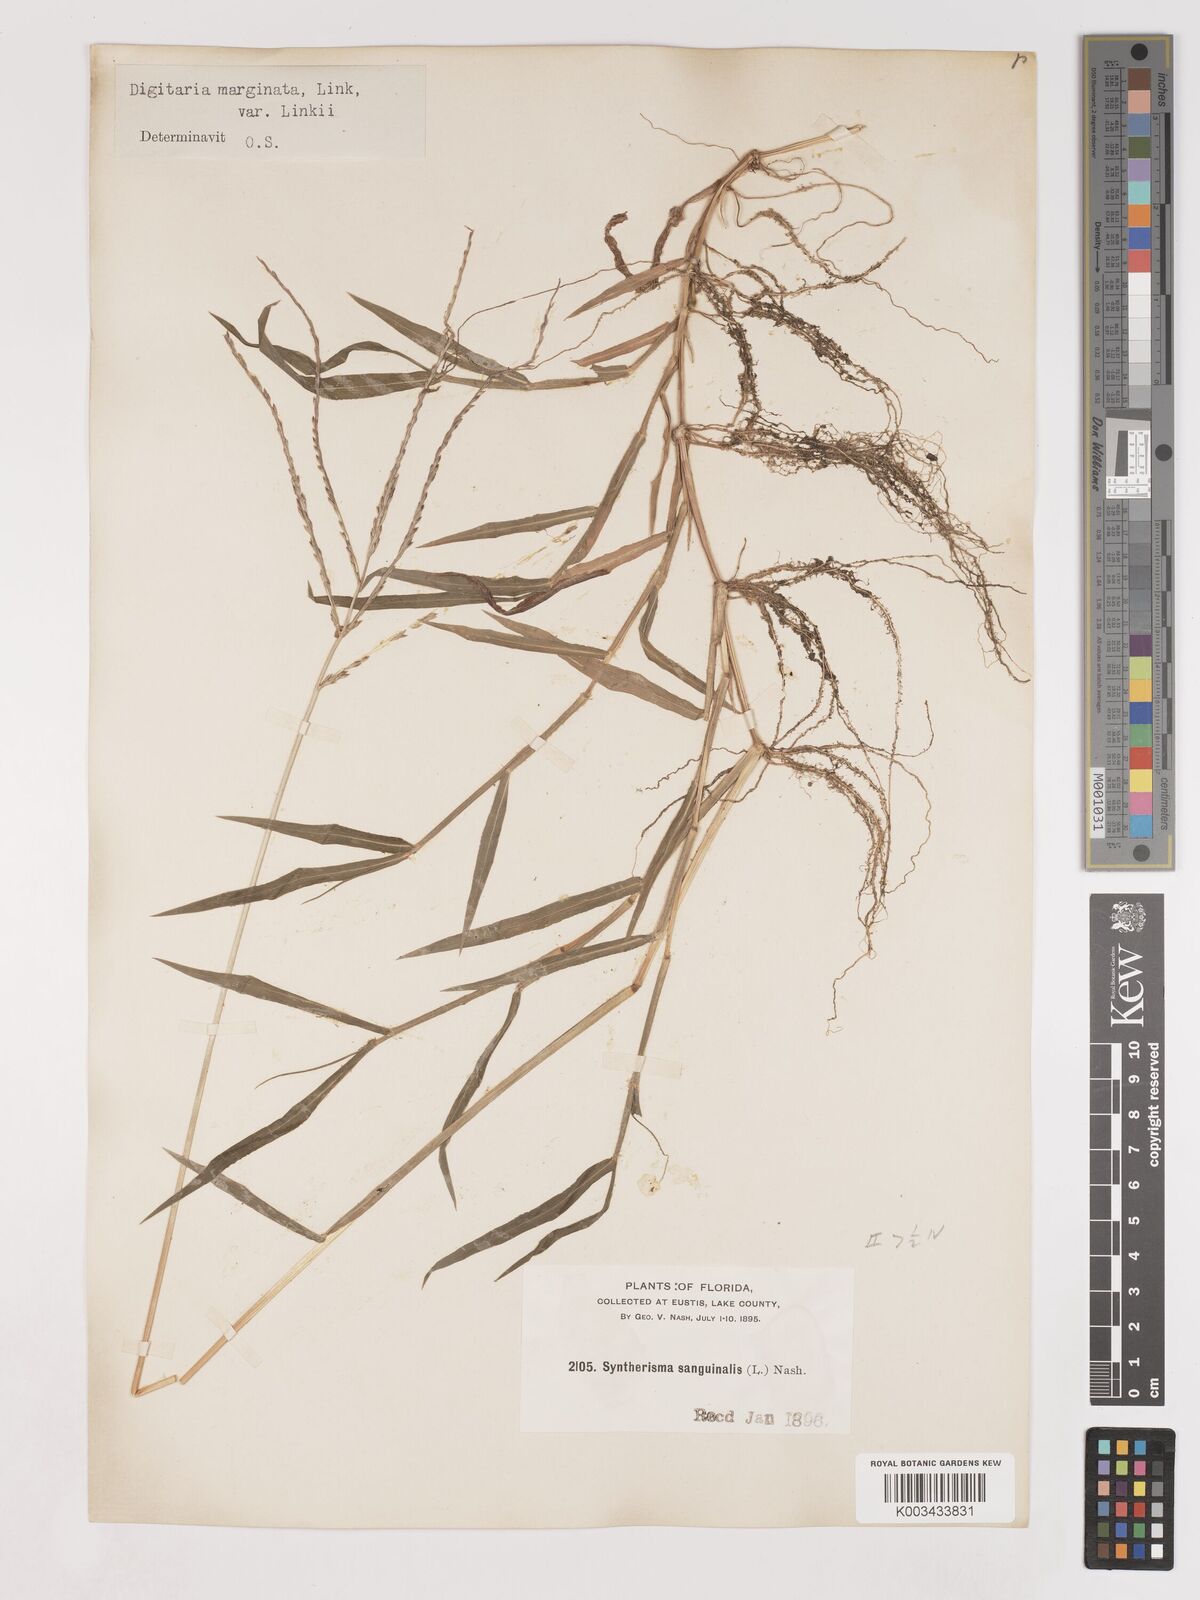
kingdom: Plantae
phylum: Tracheophyta
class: Liliopsida
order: Poales
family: Poaceae
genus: Digitaria
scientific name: Digitaria ciliaris
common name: Tropical finger-grass
